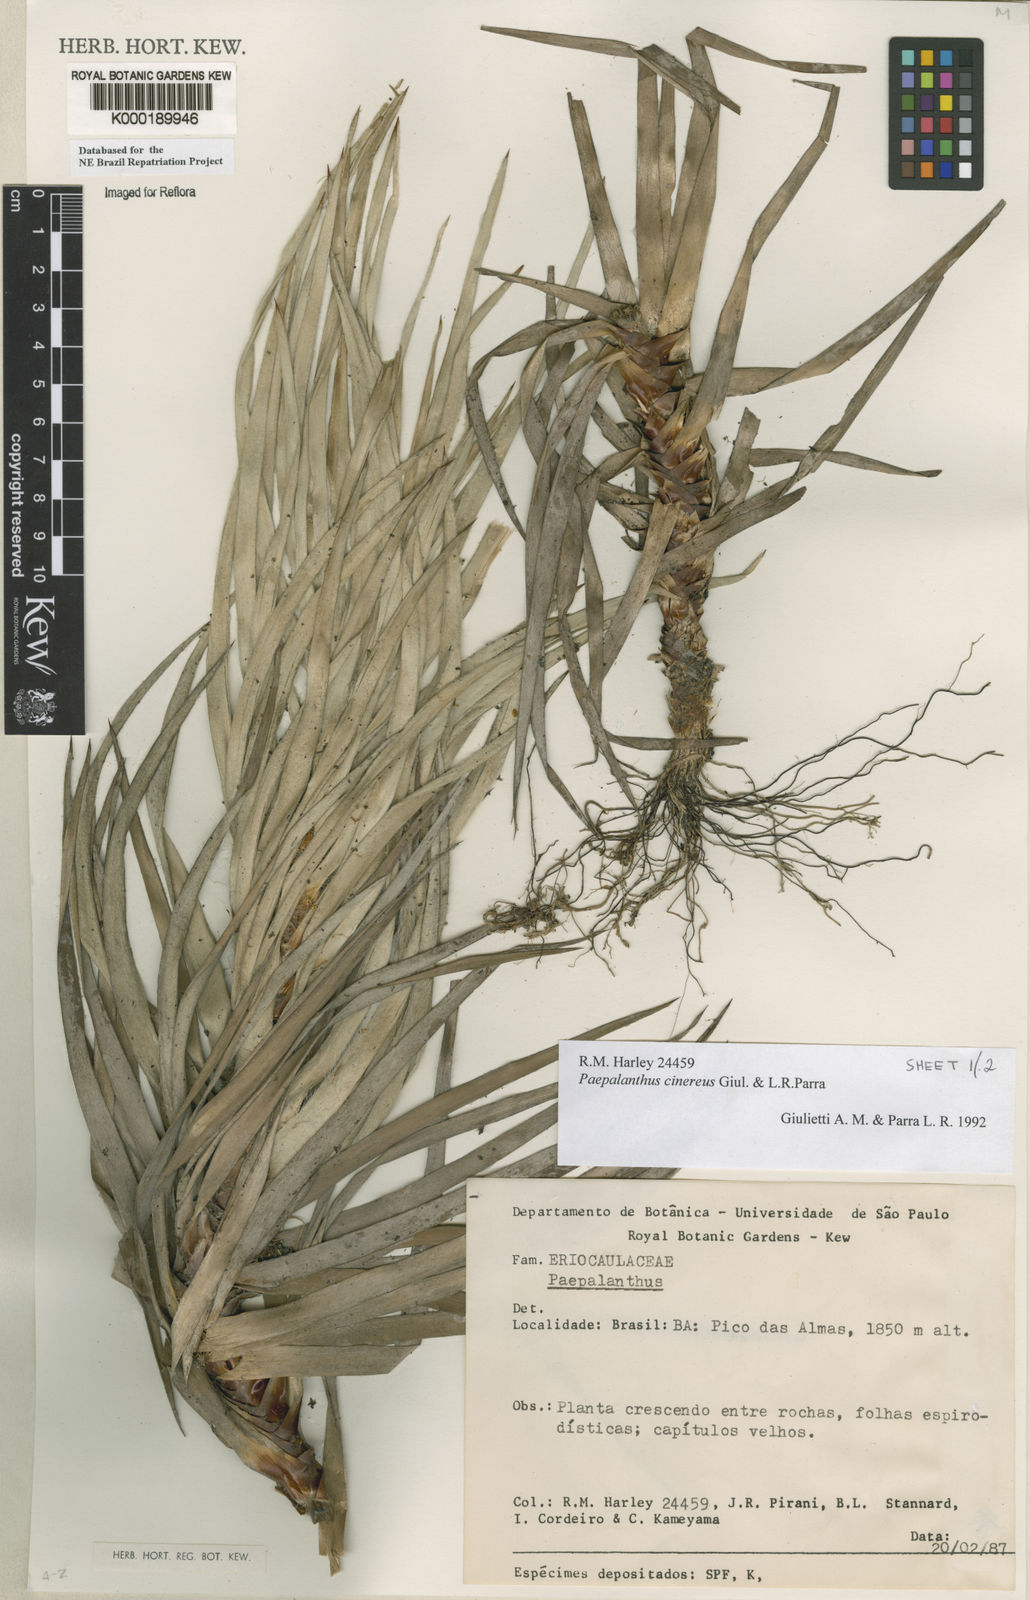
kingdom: Plantae
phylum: Tracheophyta
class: Liliopsida
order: Poales
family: Eriocaulaceae
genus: Paepalanthus
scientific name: Paepalanthus cinereus
